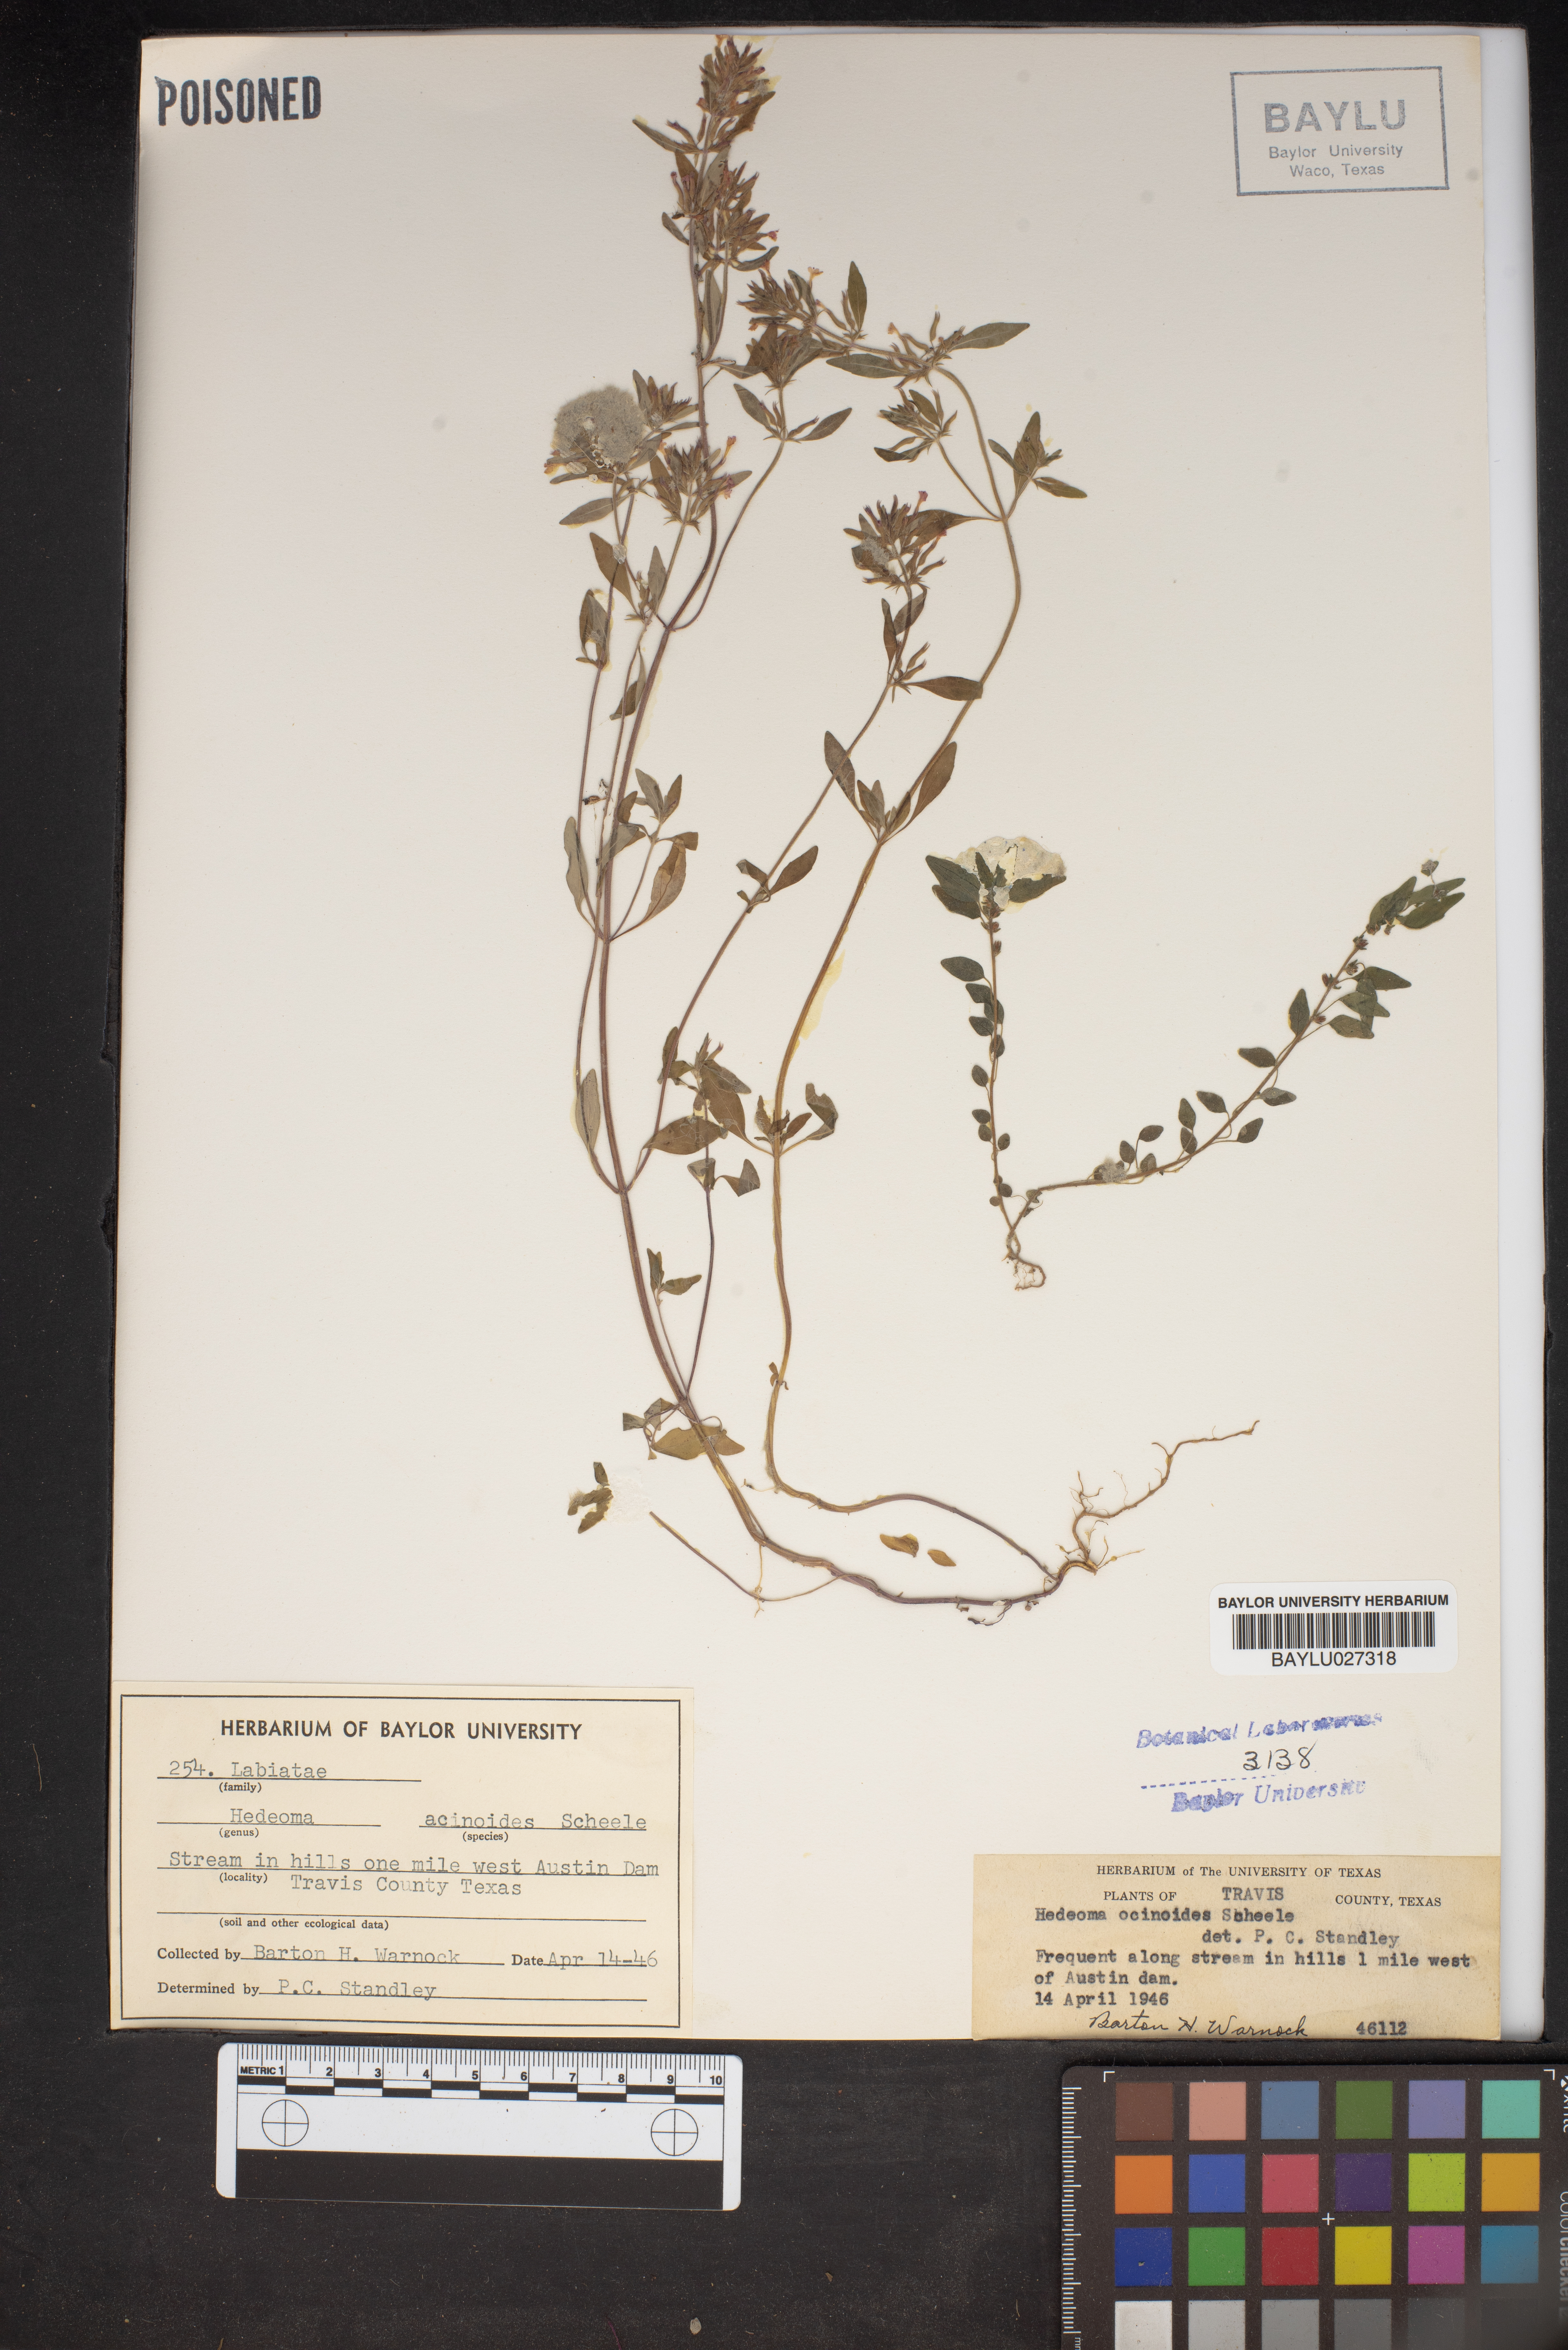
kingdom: Plantae
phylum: Tracheophyta
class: Magnoliopsida
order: Lamiales
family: Lamiaceae
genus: Hedeoma
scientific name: Hedeoma acinoides
